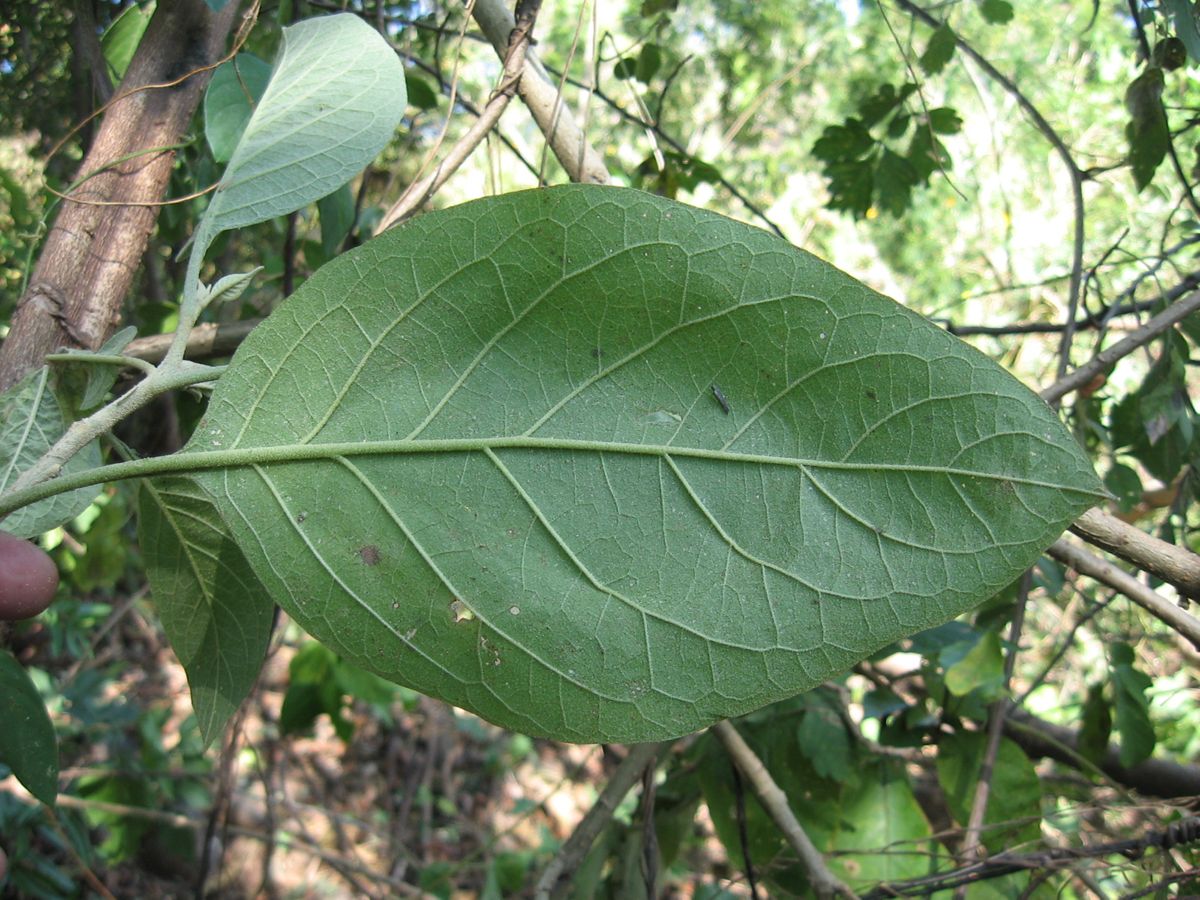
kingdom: Plantae
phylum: Tracheophyta
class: Magnoliopsida
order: Solanales
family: Solanaceae
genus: Solanum
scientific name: Solanum hazenii
